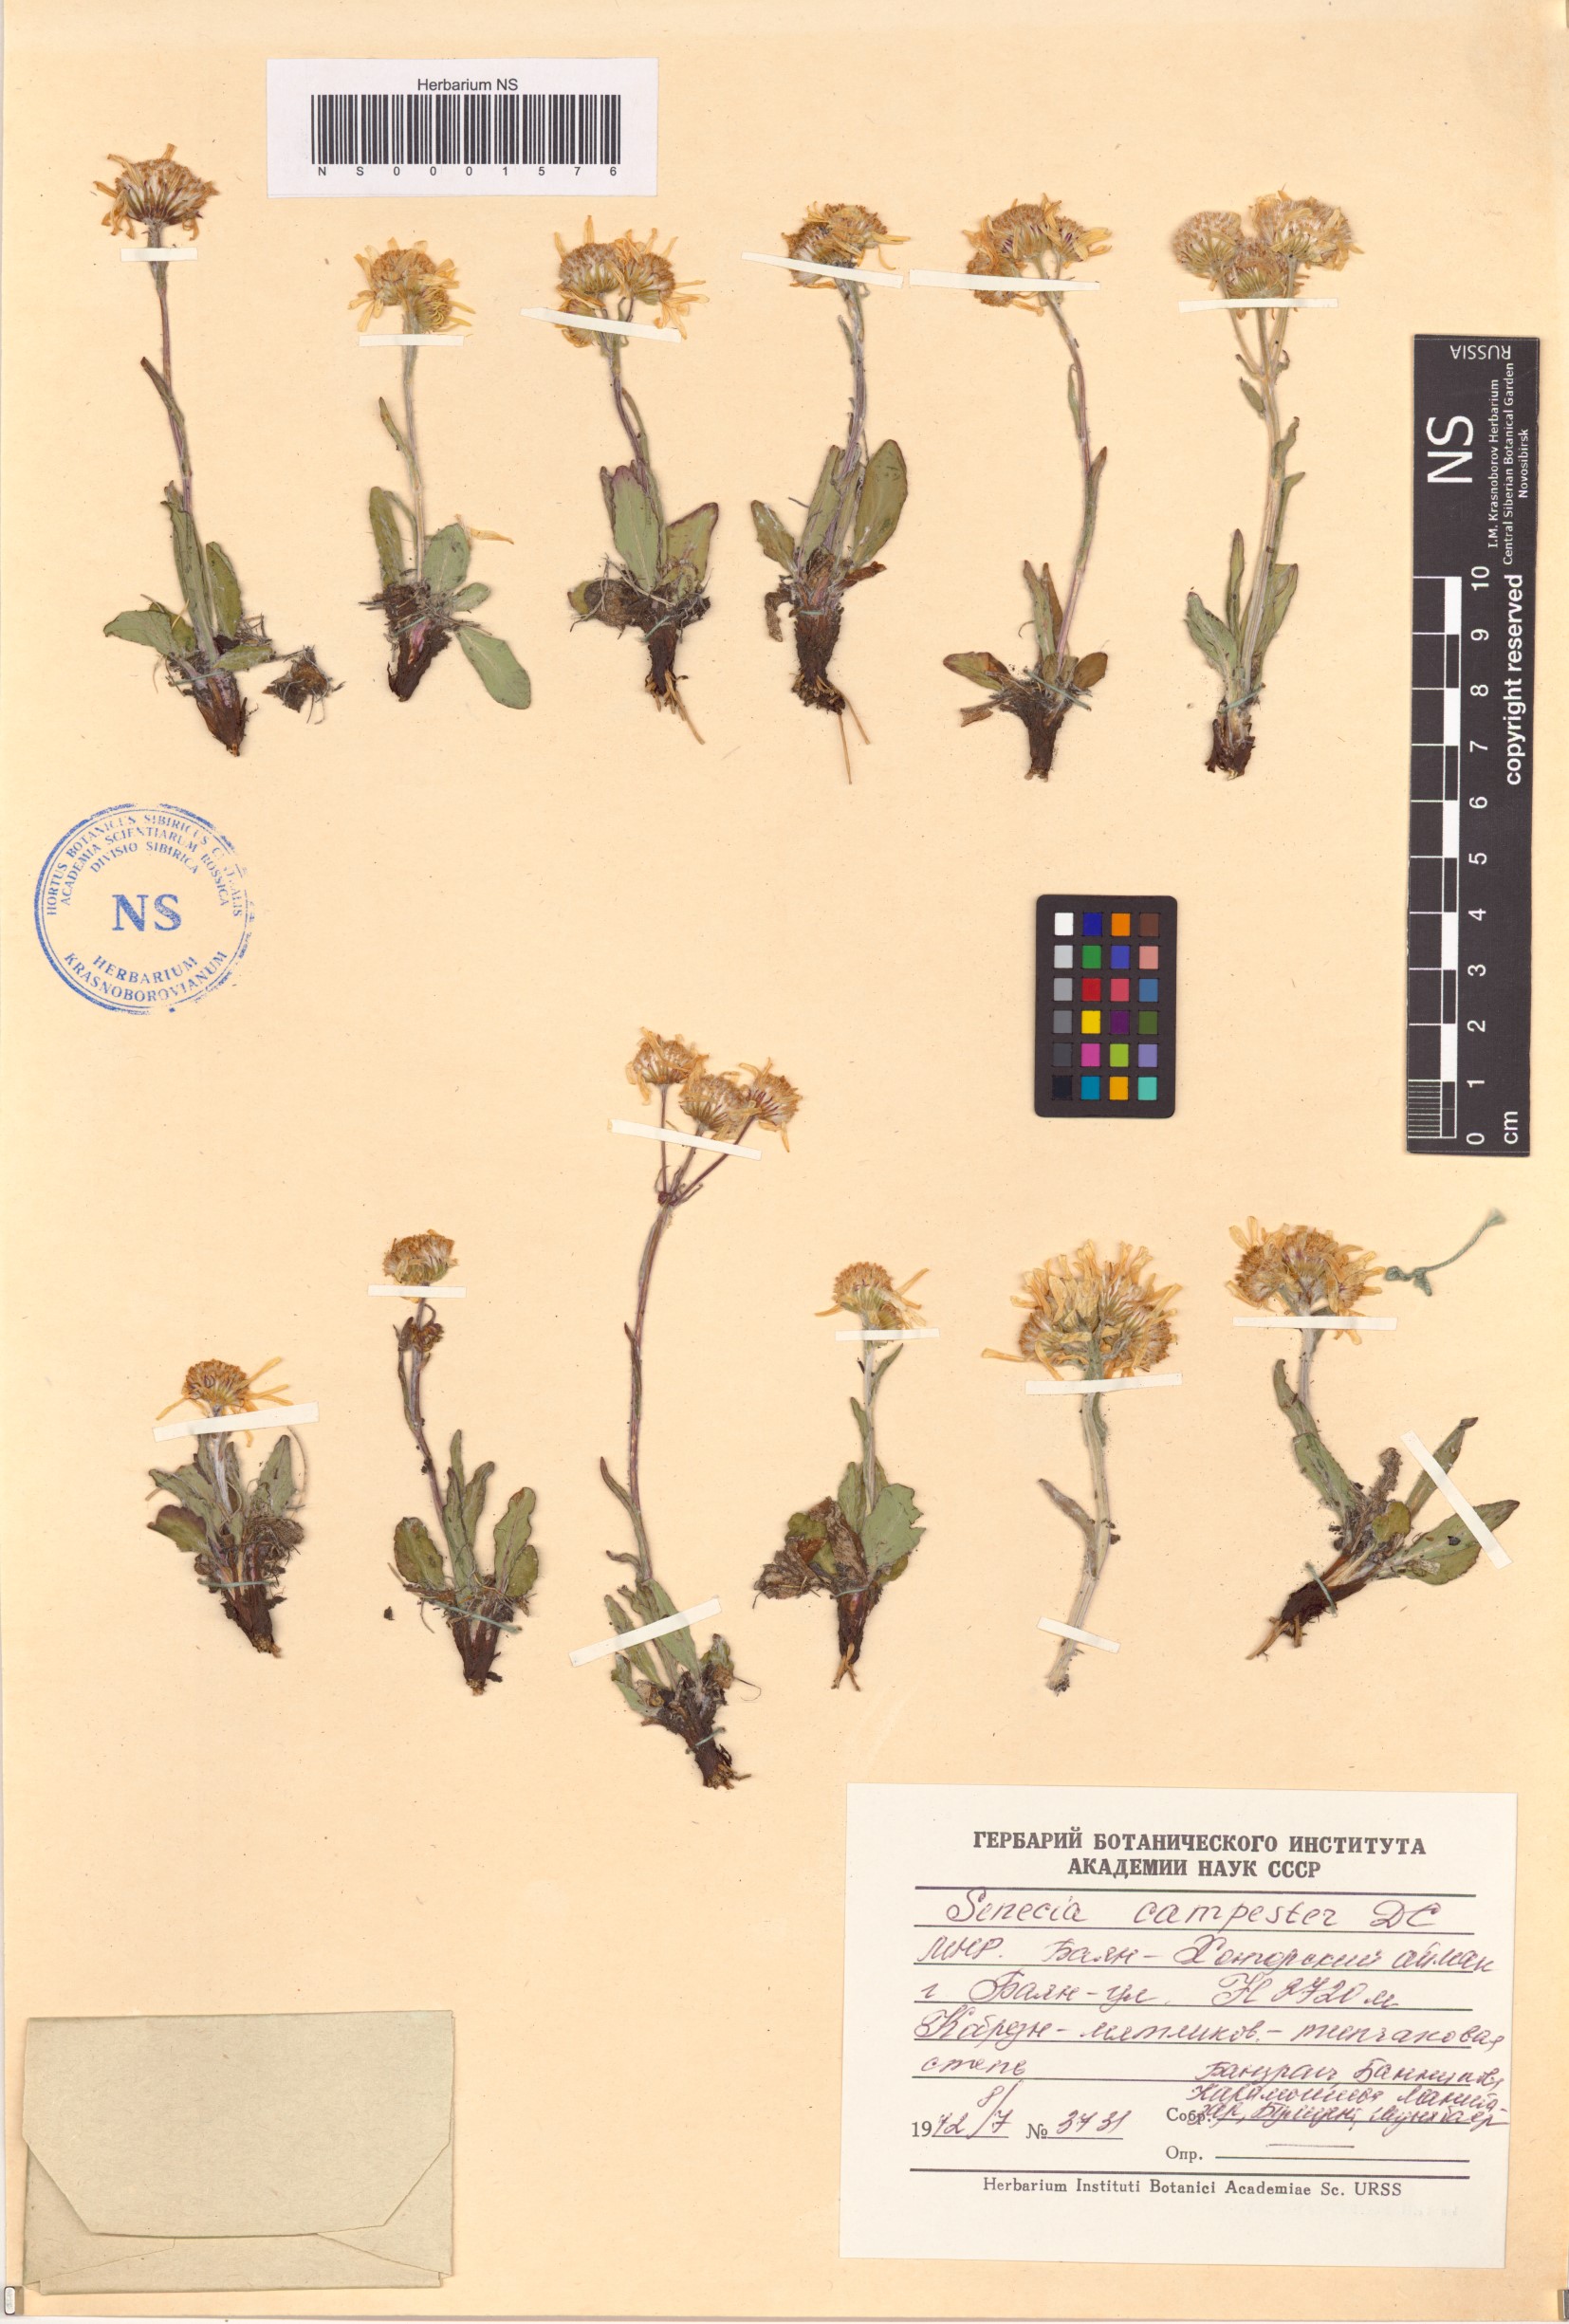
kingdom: Plantae
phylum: Tracheophyta
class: Magnoliopsida
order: Asterales
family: Asteraceae
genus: Tephroseris
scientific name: Tephroseris integrifolia
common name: Field fleawort
